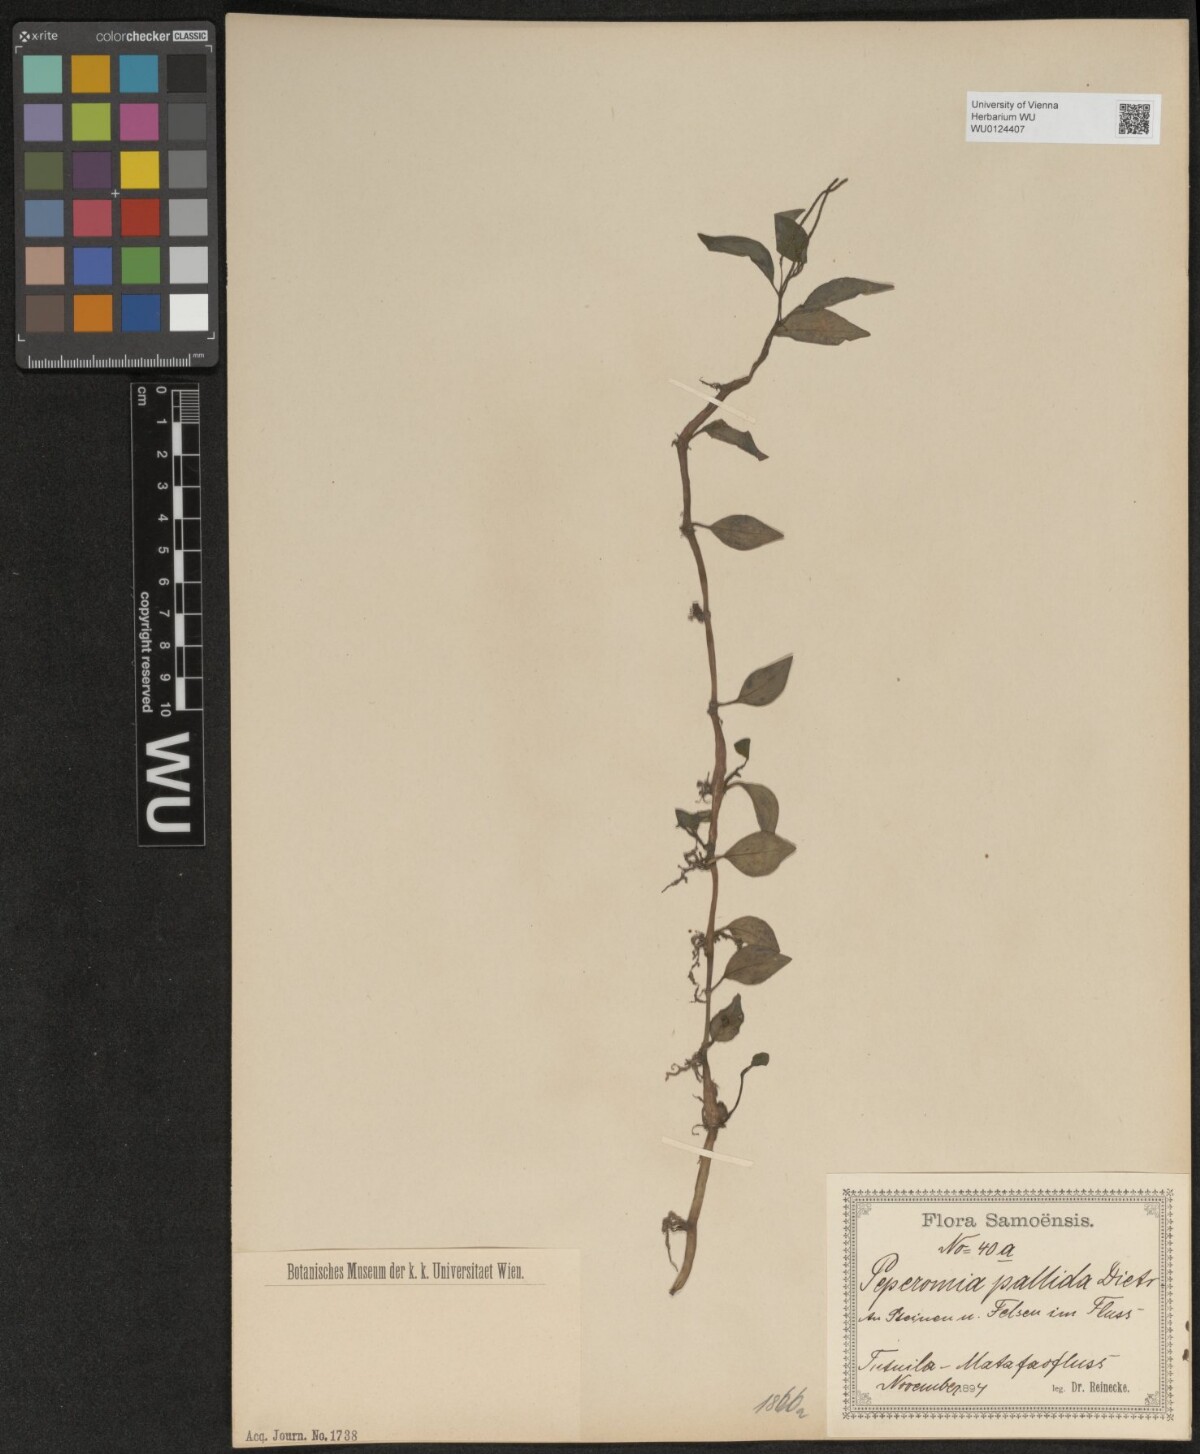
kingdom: Plantae
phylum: Tracheophyta
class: Magnoliopsida
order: Piperales
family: Piperaceae
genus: Peperomia
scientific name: Peperomia pallida
